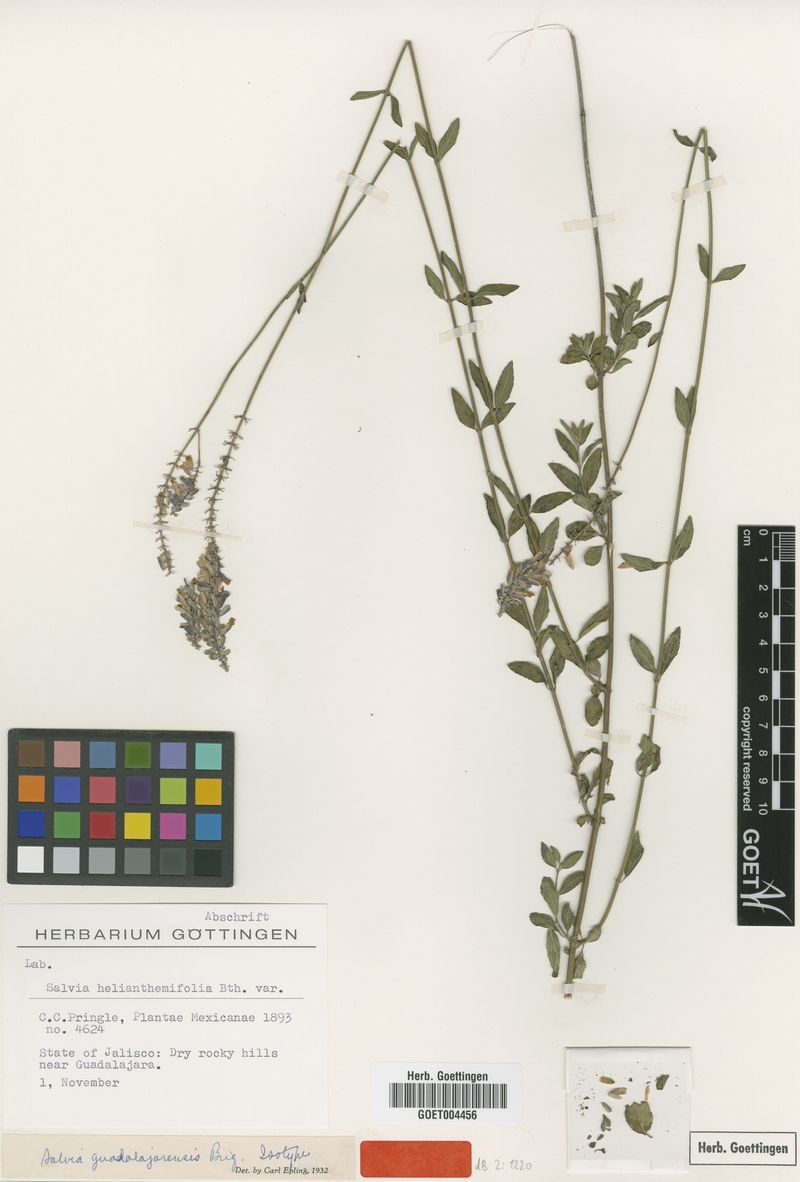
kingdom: Plantae
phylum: Tracheophyta
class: Magnoliopsida
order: Lamiales
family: Lamiaceae
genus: Salvia
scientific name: Salvia guadalajarensis
